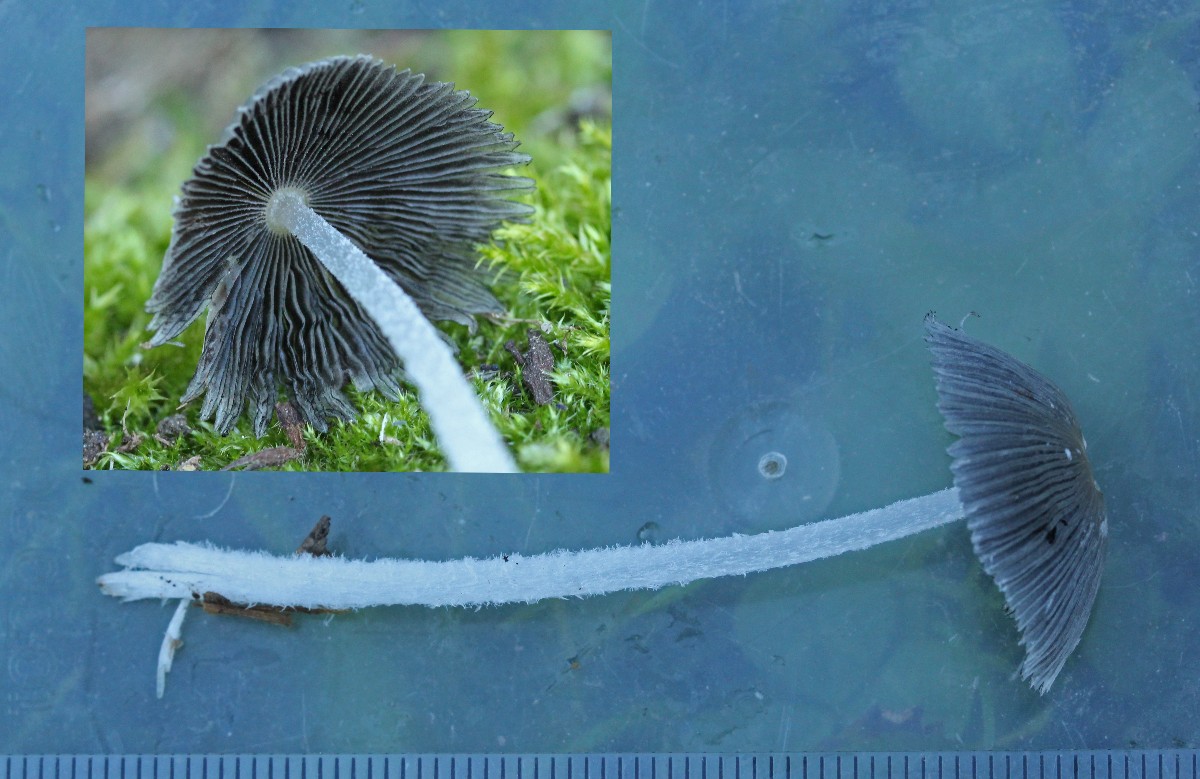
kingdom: Fungi
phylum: Basidiomycota
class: Agaricomycetes
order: Agaricales
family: Psathyrellaceae
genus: Coprinopsis
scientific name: Coprinopsis lagopus
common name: dunstokket blækhat
